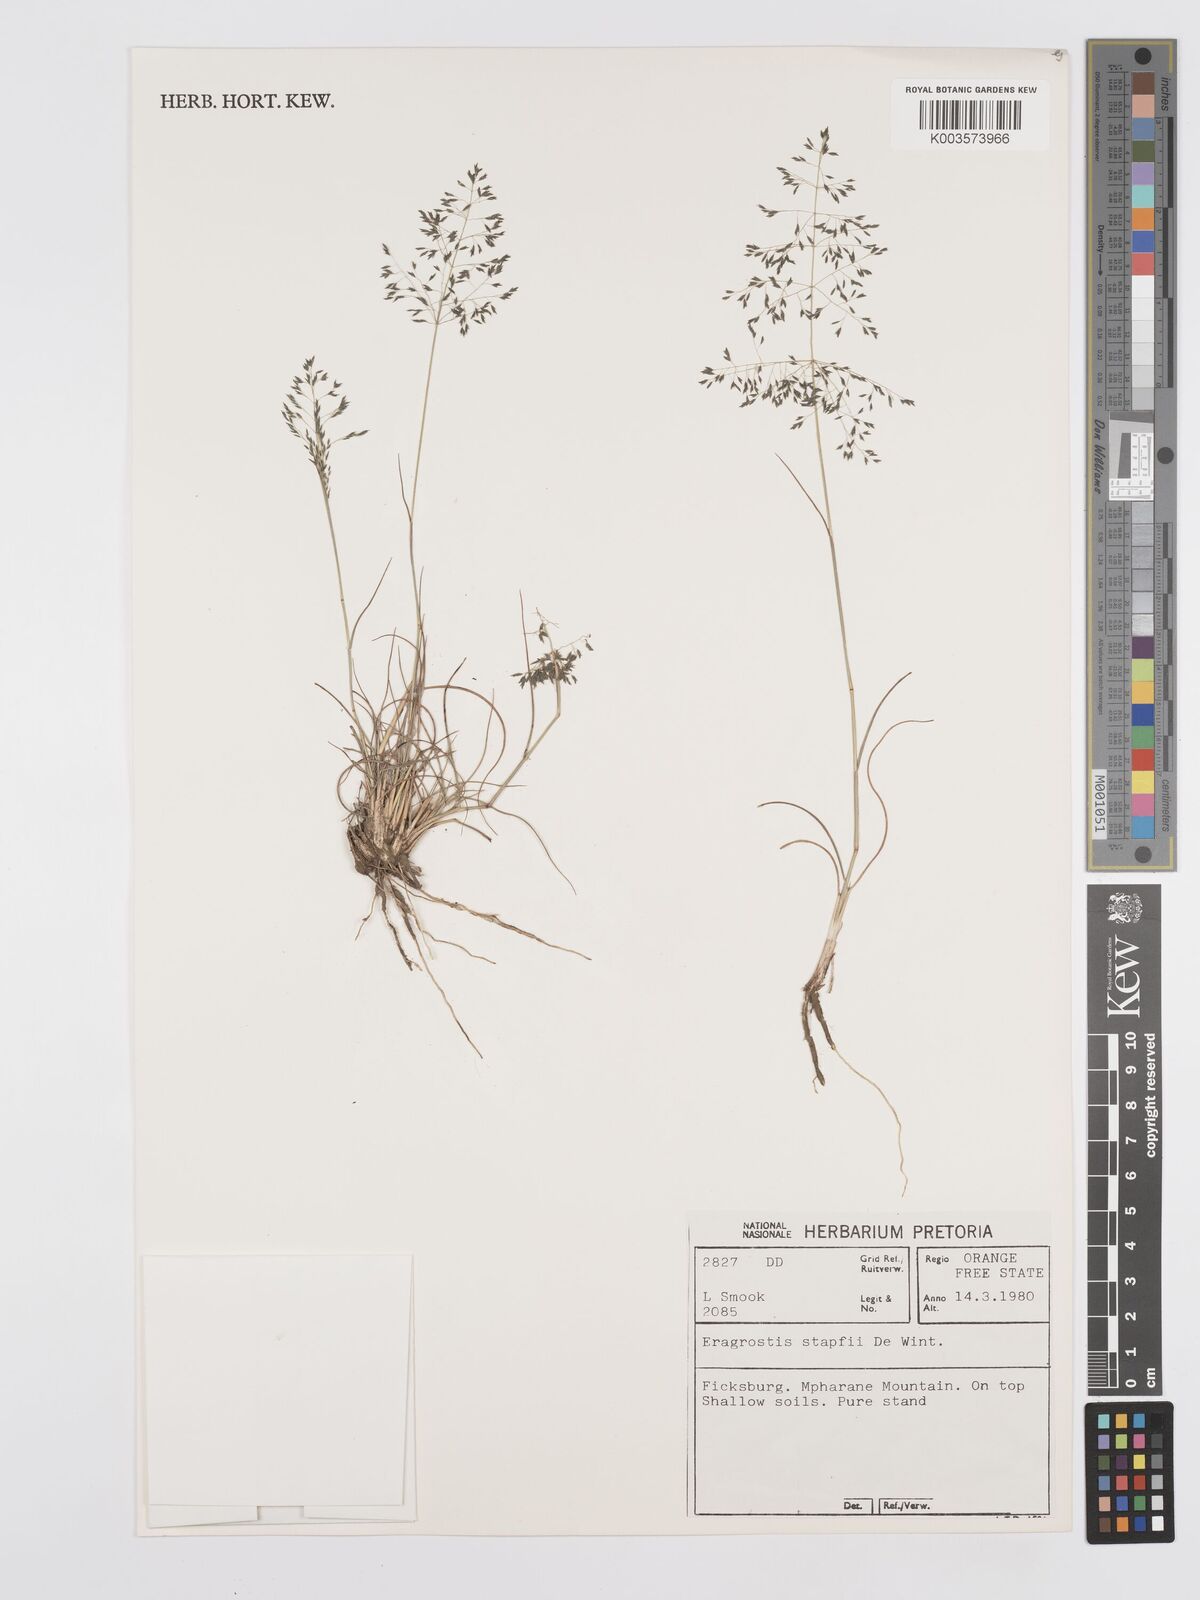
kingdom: Plantae
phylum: Tracheophyta
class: Liliopsida
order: Poales
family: Poaceae
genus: Eragrostis
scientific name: Eragrostis stapfii
